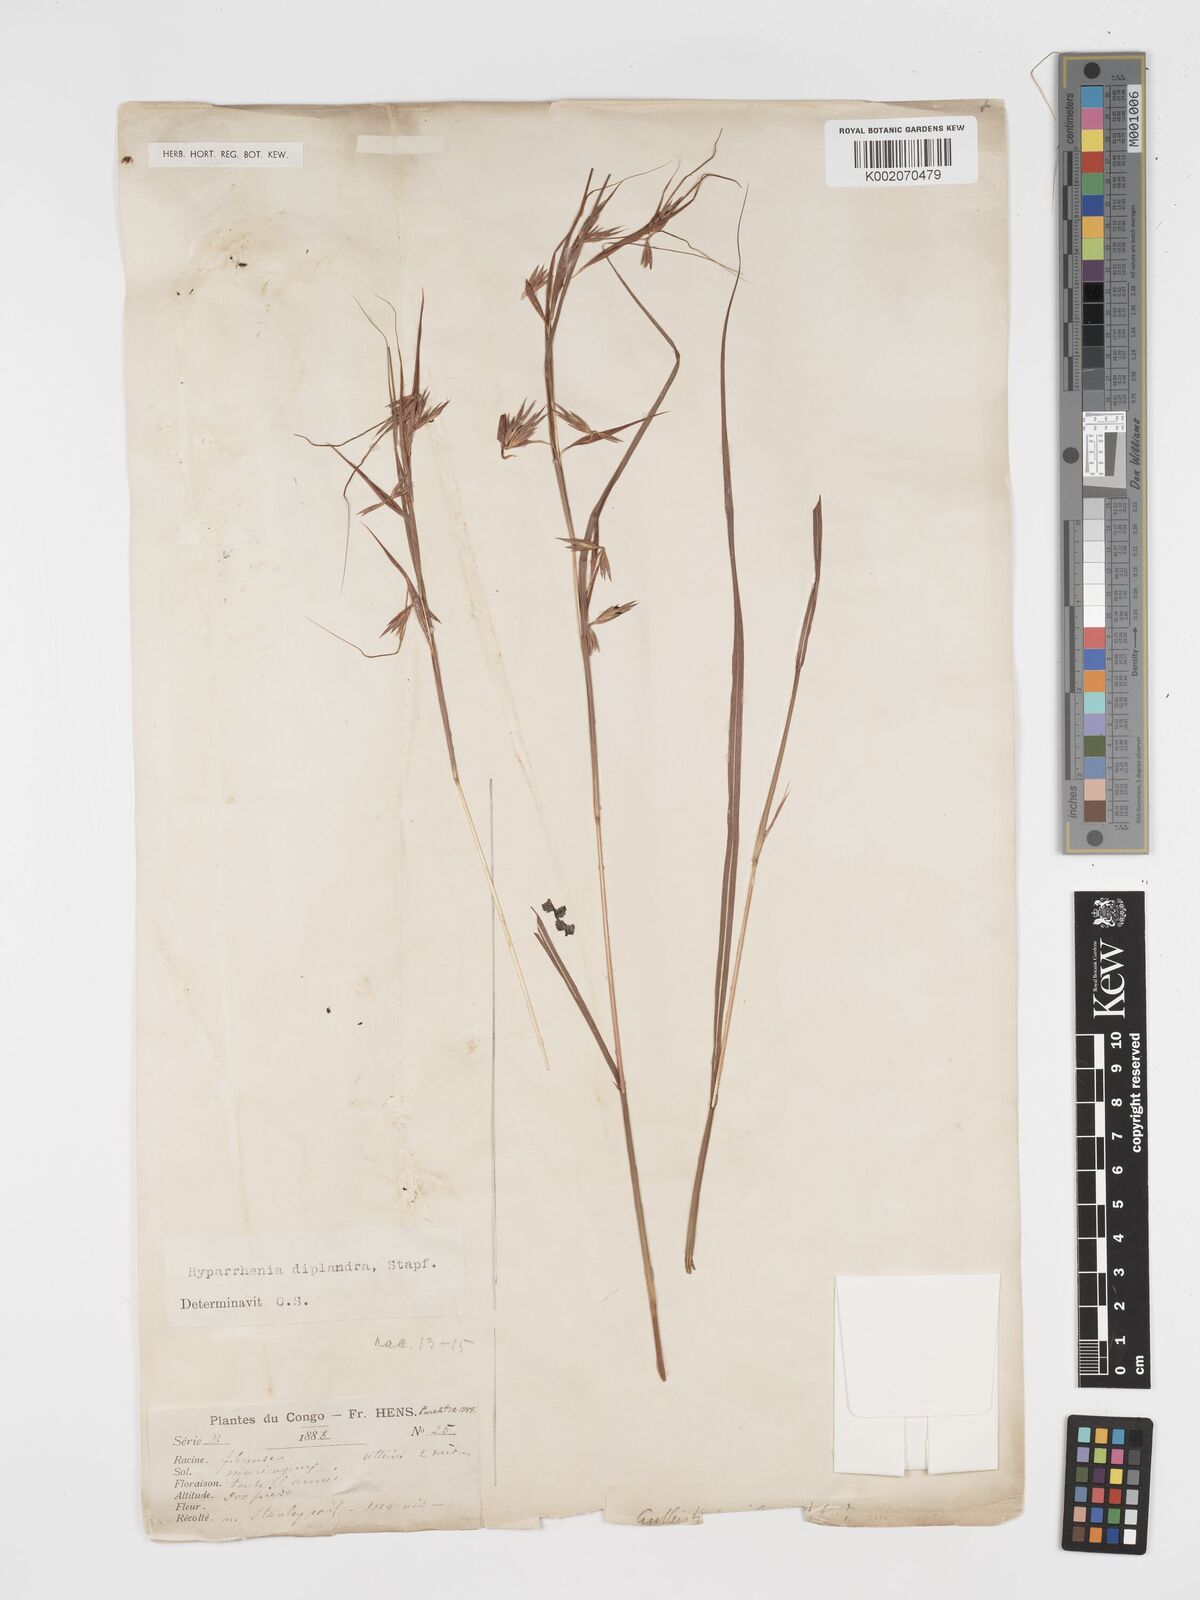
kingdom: Plantae
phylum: Tracheophyta
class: Liliopsida
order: Poales
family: Poaceae
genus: Hyparrhenia
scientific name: Hyparrhenia diplandra
